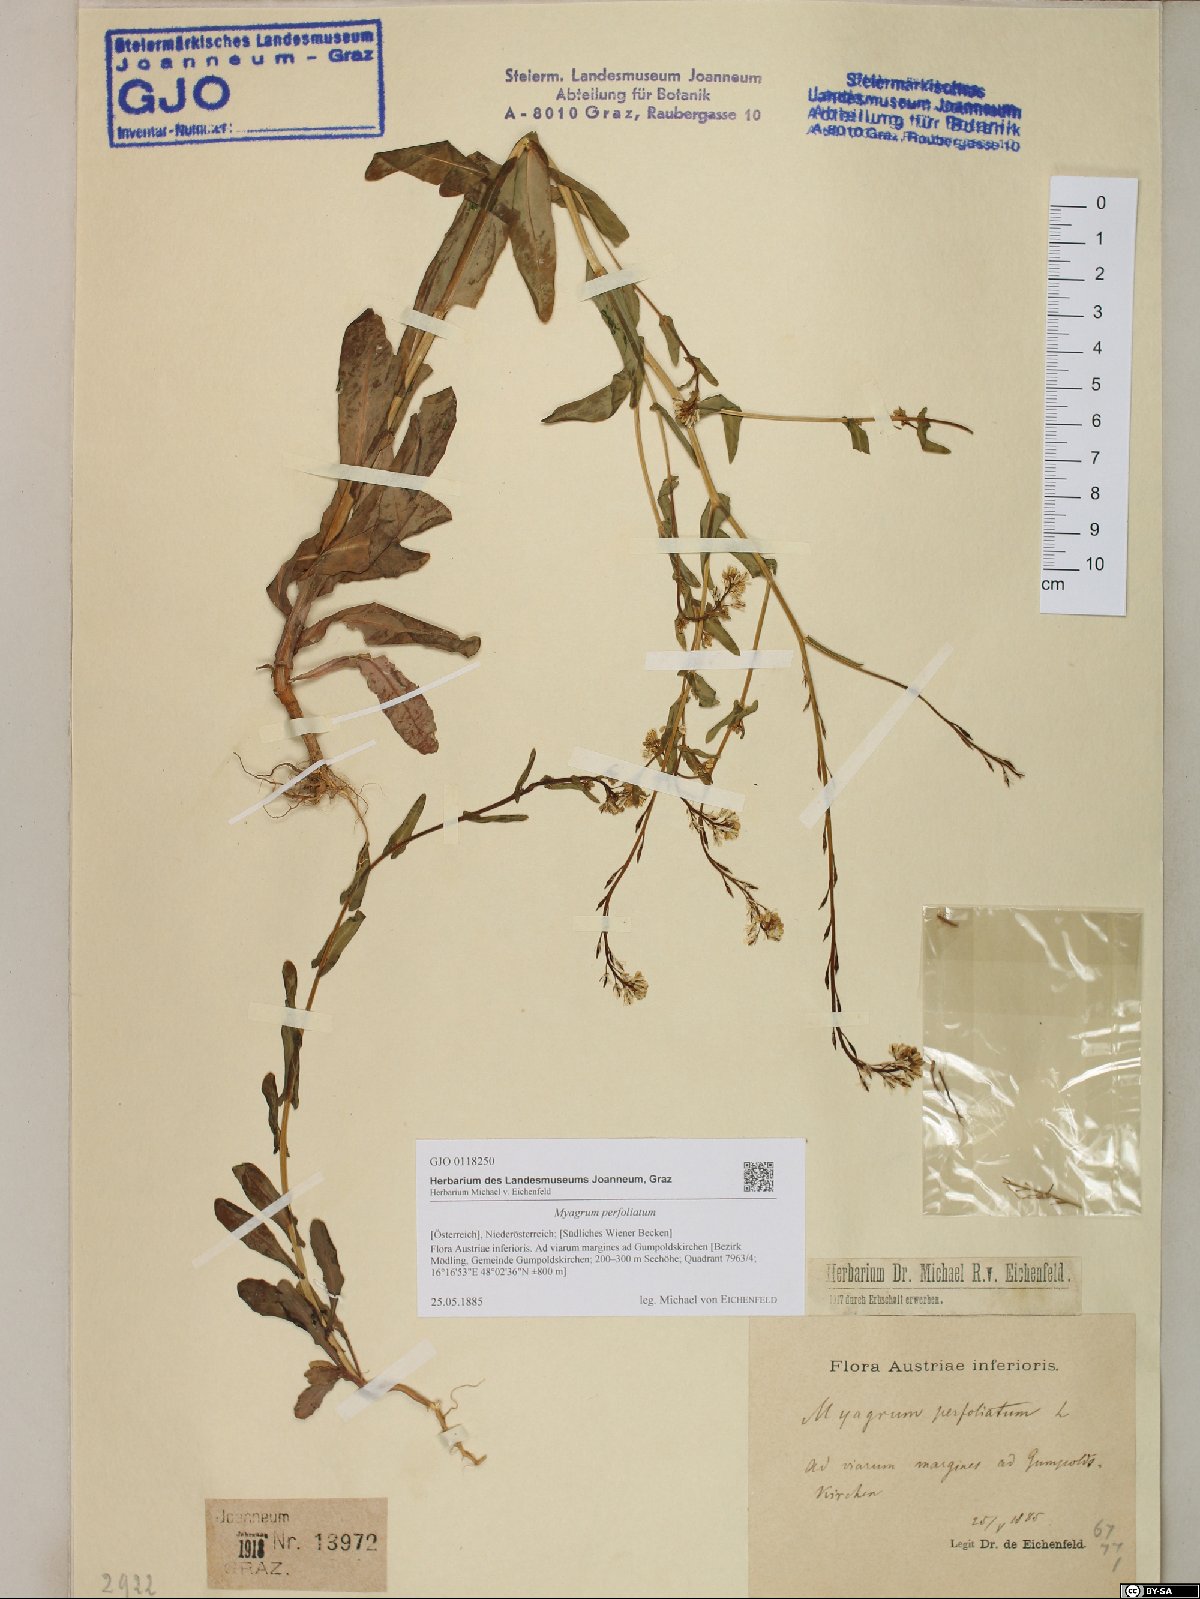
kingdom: Plantae
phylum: Tracheophyta
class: Magnoliopsida
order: Brassicales
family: Brassicaceae
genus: Myagrum
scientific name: Myagrum perfoliatum
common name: Mitre cress
